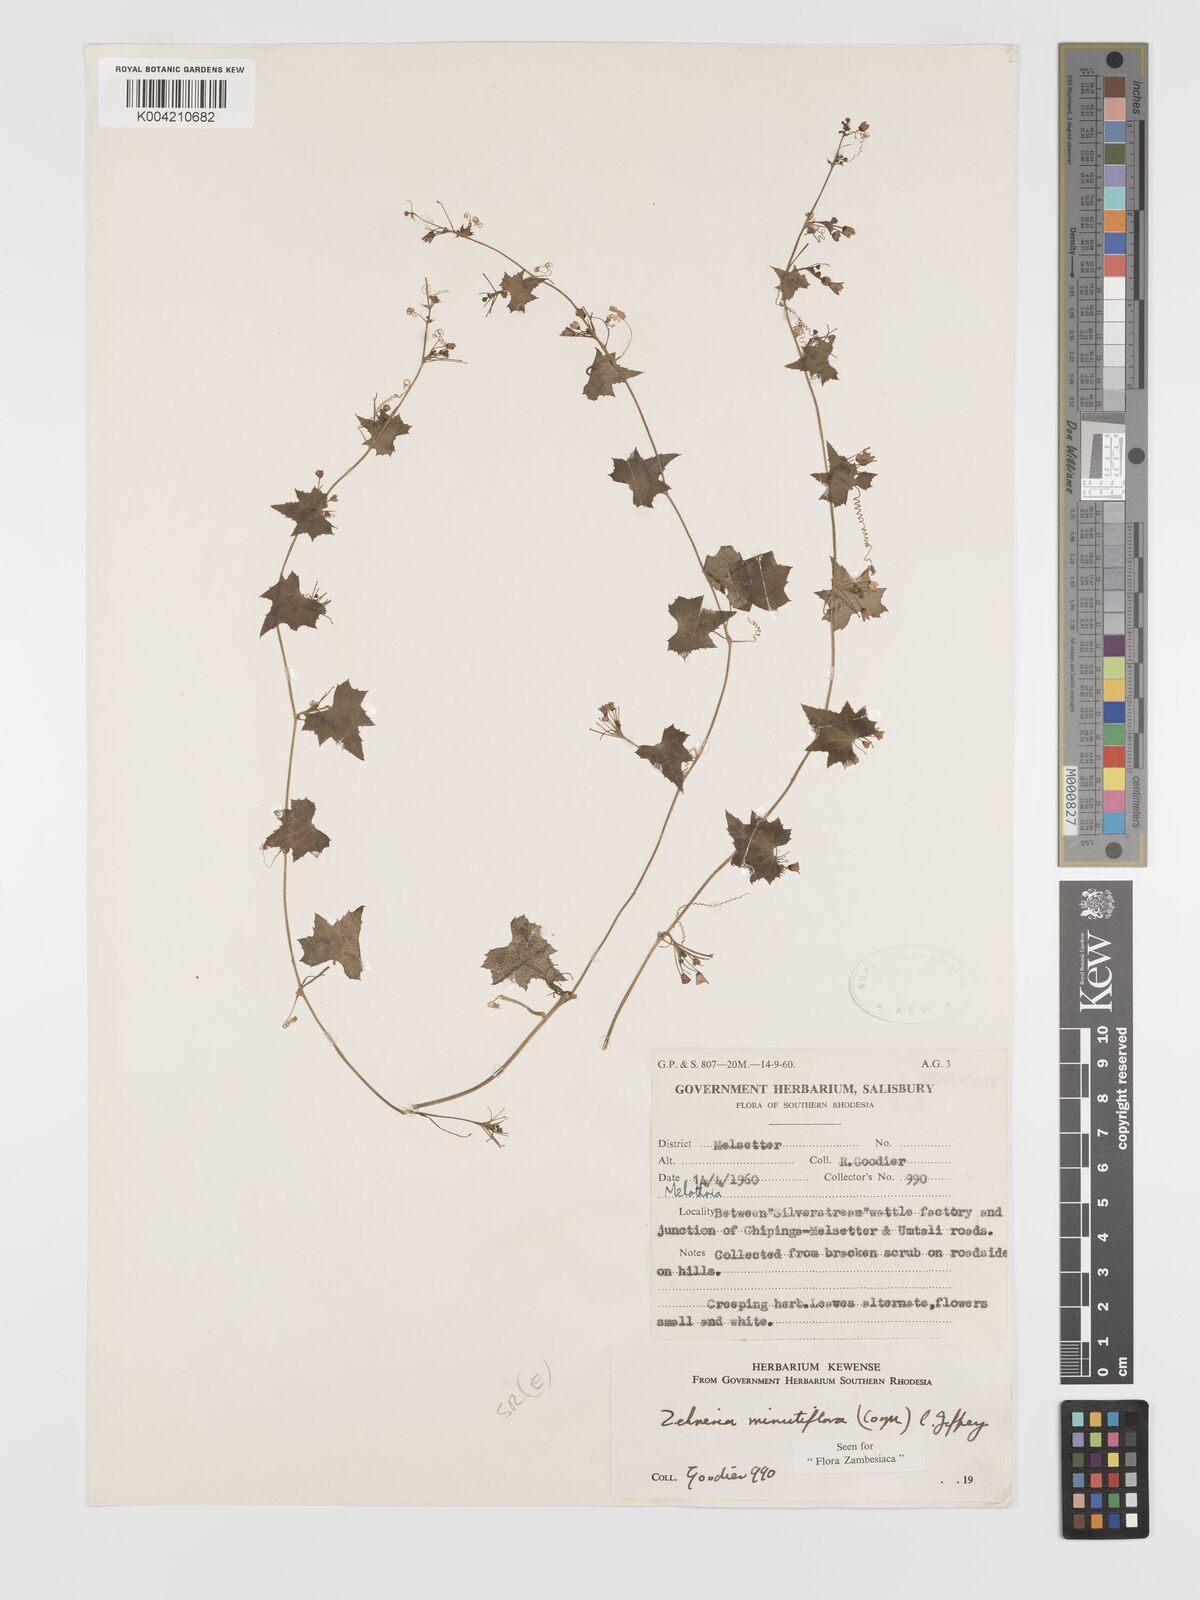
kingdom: Plantae
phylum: Tracheophyta
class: Magnoliopsida
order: Cucurbitales
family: Cucurbitaceae
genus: Zehneria
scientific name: Zehneria minutiflora
